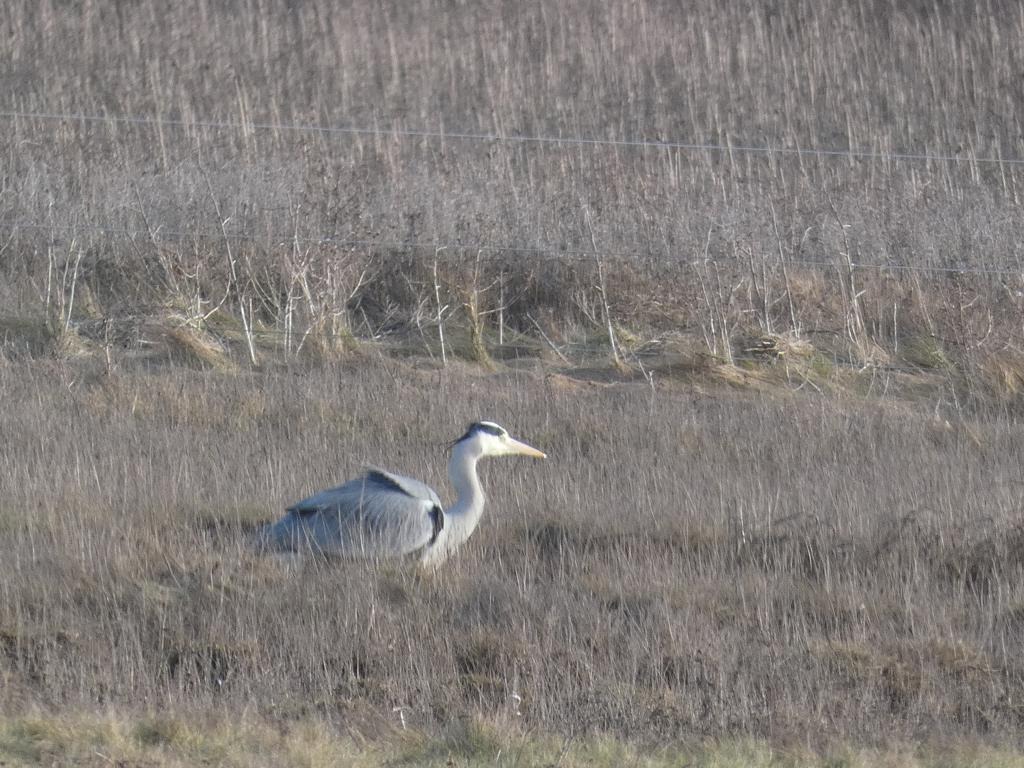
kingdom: Animalia
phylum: Chordata
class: Aves
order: Pelecaniformes
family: Ardeidae
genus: Ardea
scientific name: Ardea cinerea
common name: Fiskehejre
